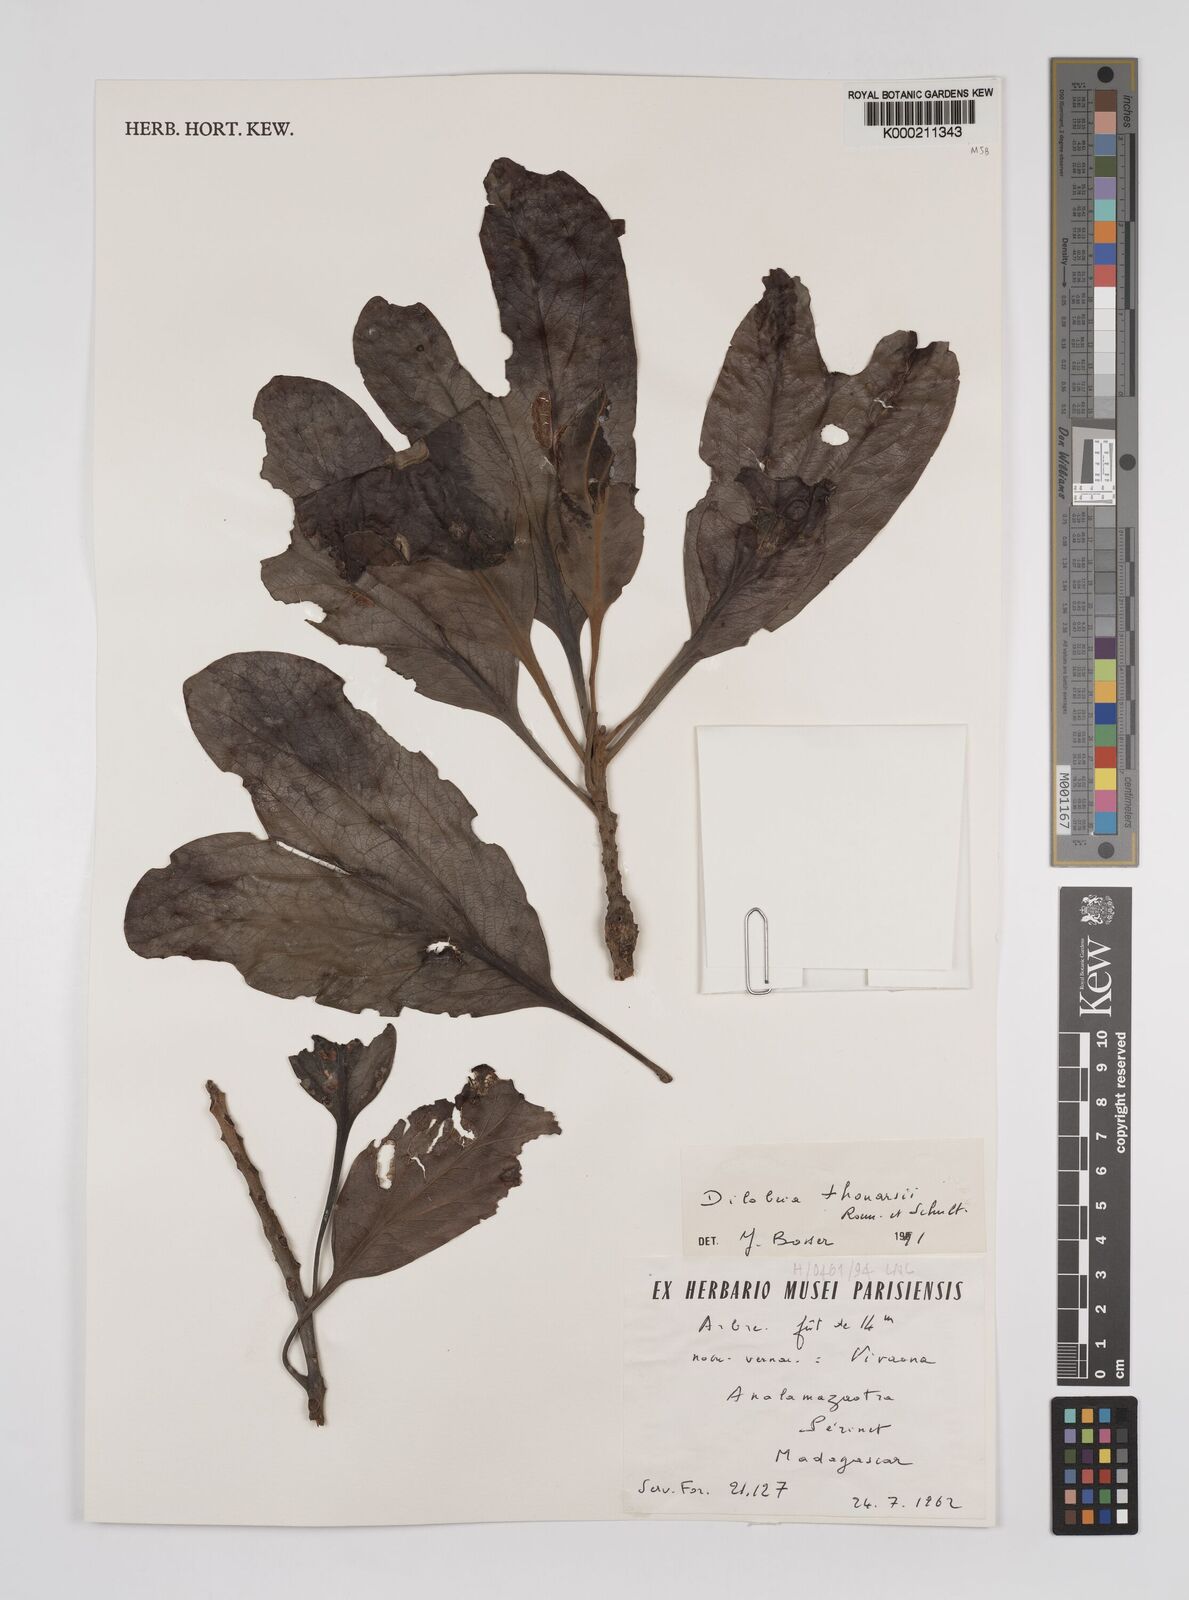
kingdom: Plantae
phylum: Tracheophyta
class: Magnoliopsida
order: Proteales
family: Proteaceae
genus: Dilobeia
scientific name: Dilobeia thouarsii
